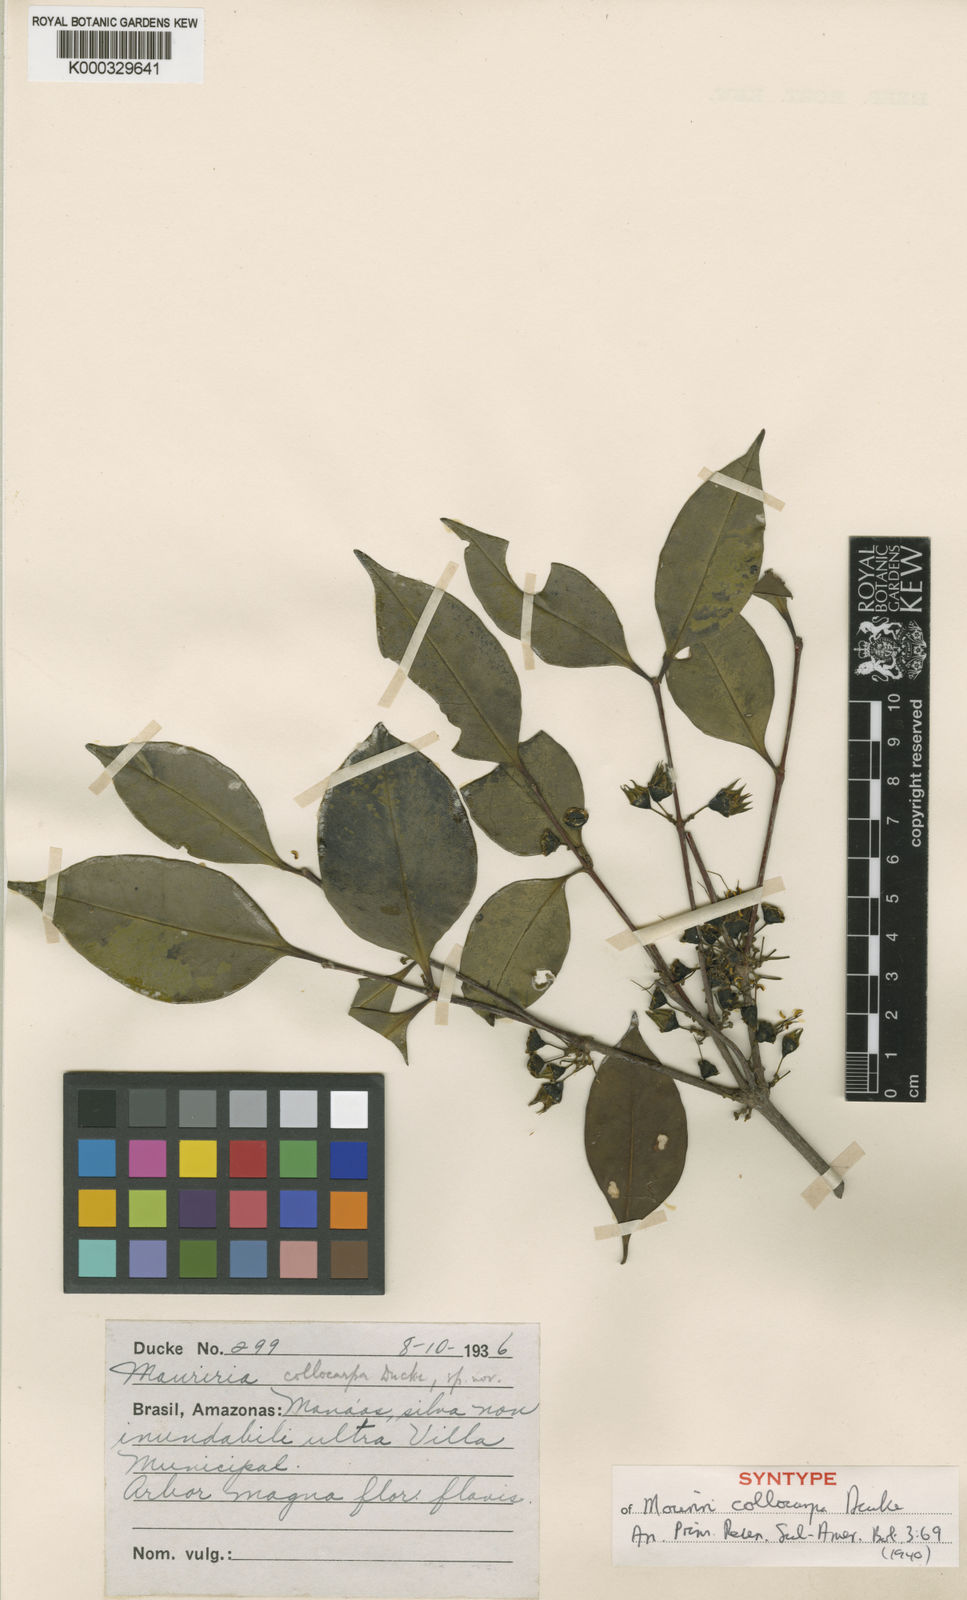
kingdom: Plantae
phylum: Tracheophyta
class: Magnoliopsida
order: Myrtales
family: Melastomataceae
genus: Mouriri
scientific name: Mouriri collocarpa
